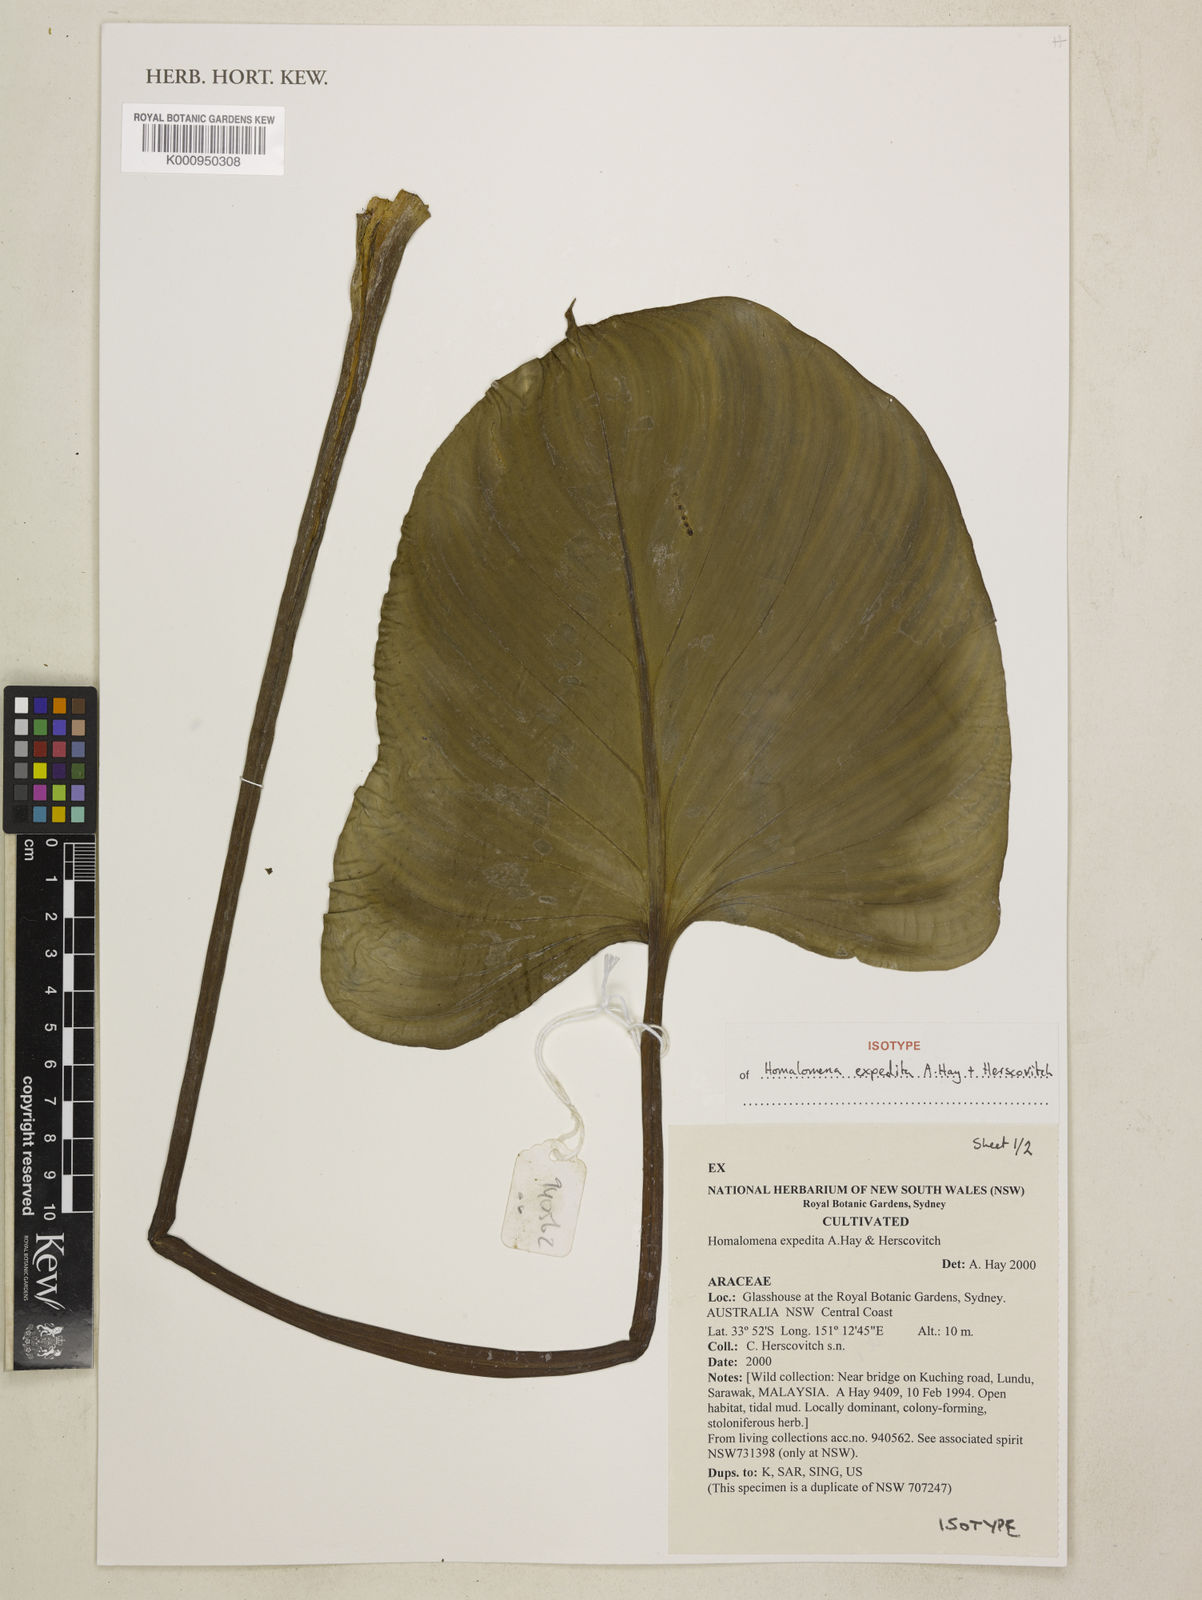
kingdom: Plantae
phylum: Tracheophyta
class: Liliopsida
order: Alismatales
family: Araceae
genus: Homalomena
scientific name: Homalomena expedita
